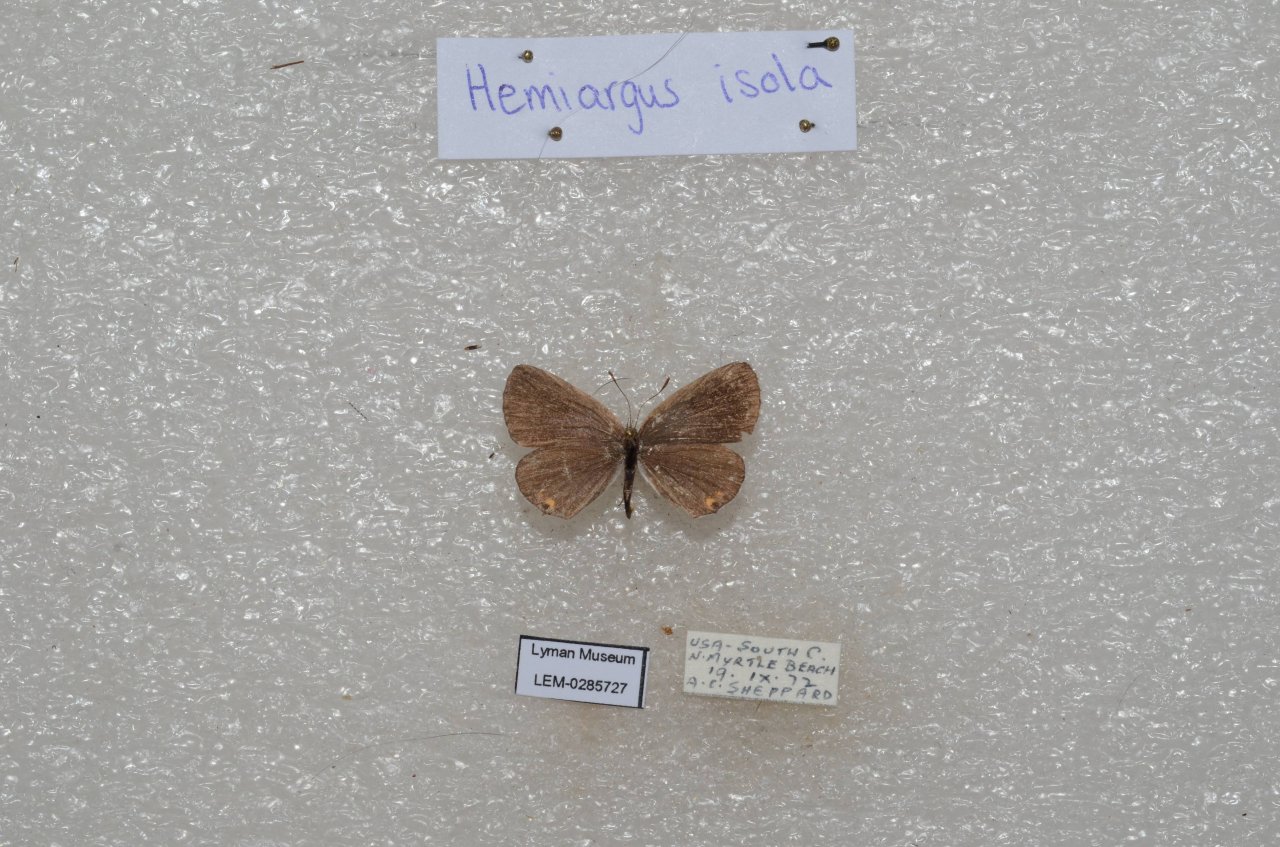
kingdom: Animalia
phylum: Arthropoda
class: Insecta
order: Lepidoptera
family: Lycaenidae
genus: Elkalyce
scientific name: Elkalyce comyntas
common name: Eastern Tailed-Blue
